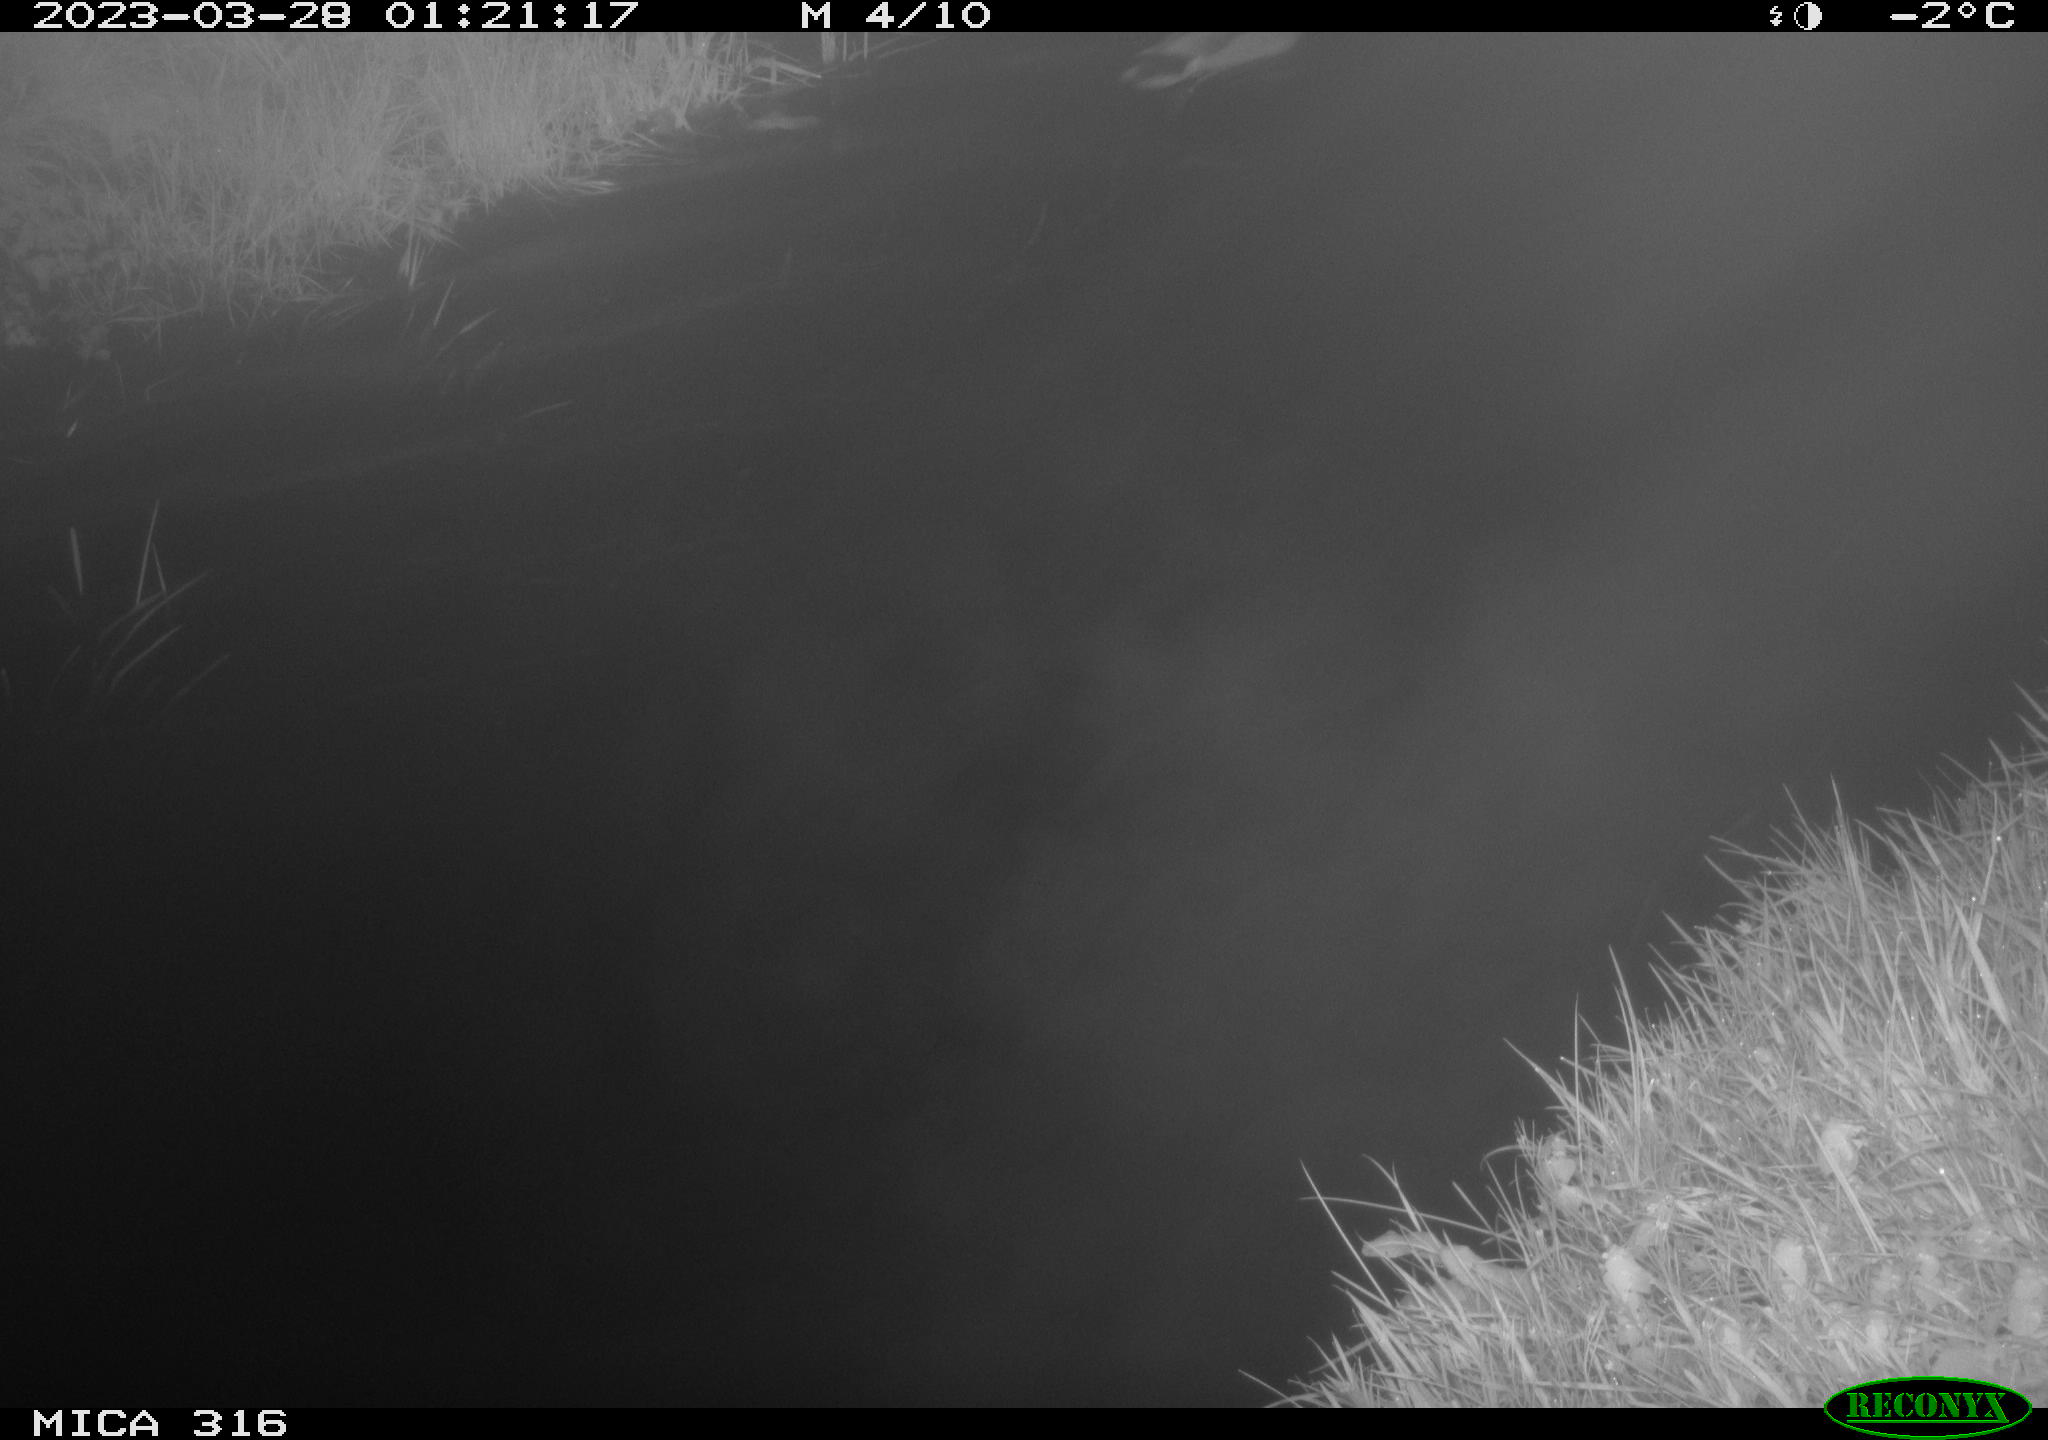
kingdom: Animalia
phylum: Chordata
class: Aves
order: Anseriformes
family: Anatidae
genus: Anas
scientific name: Anas
